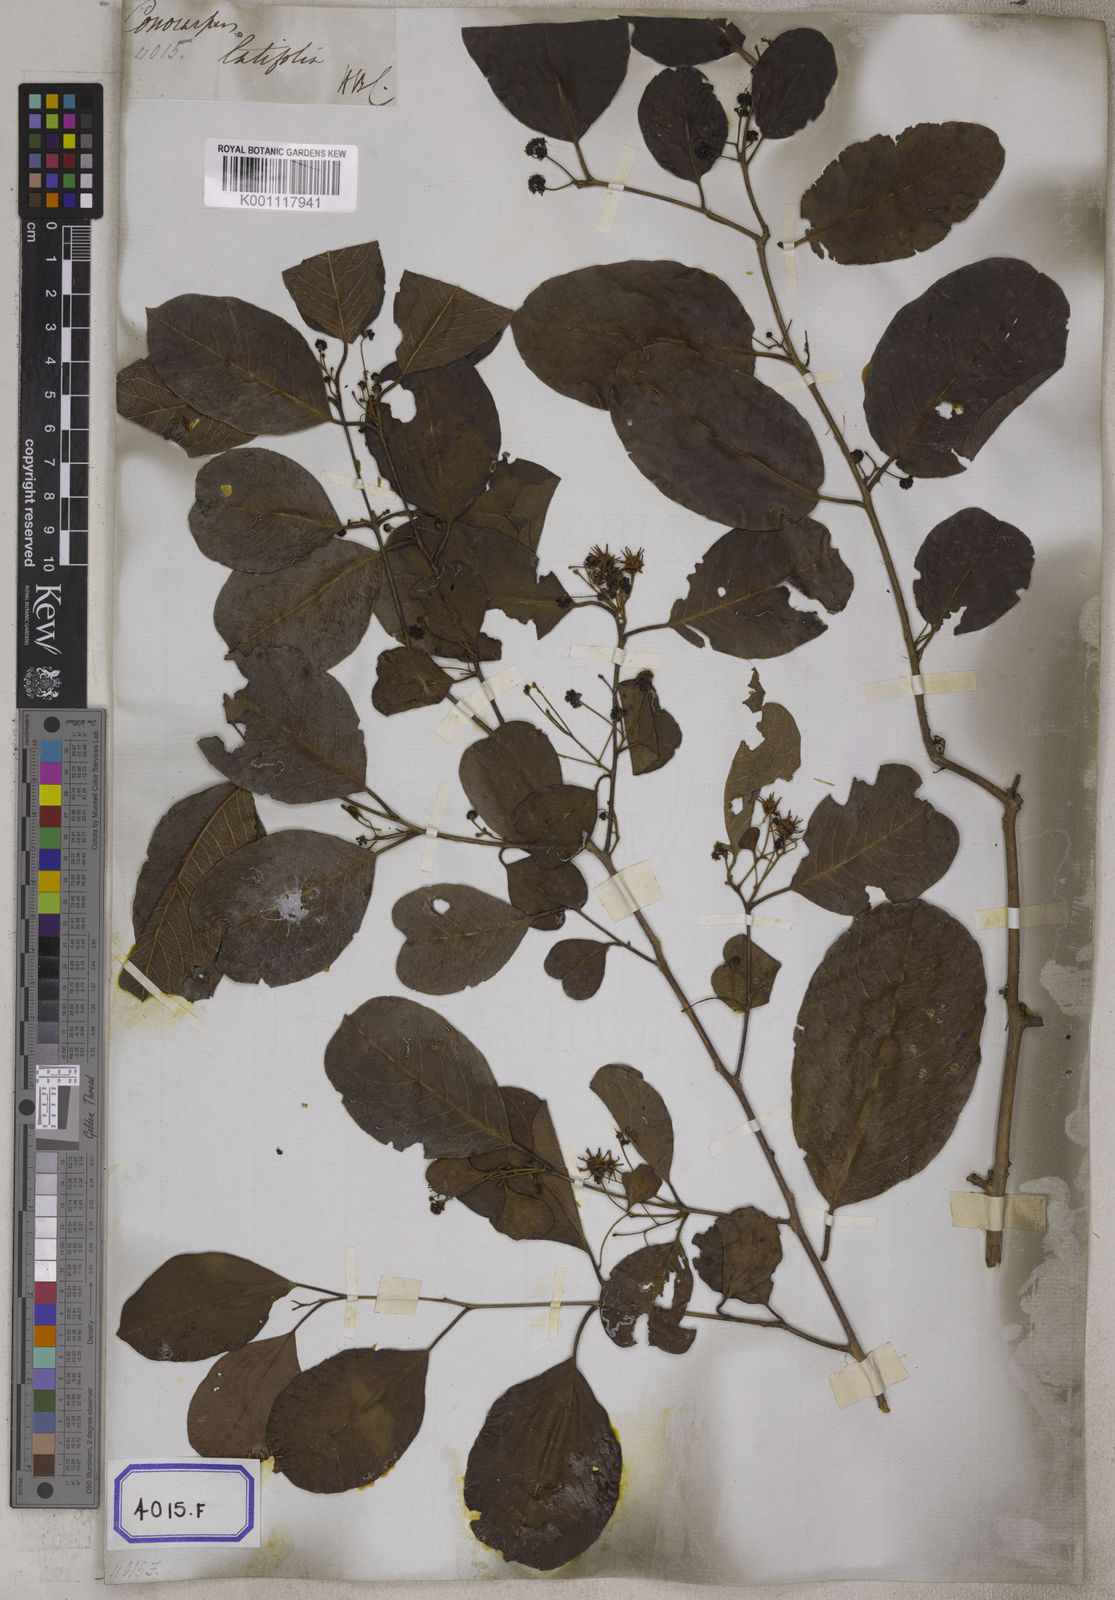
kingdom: Plantae
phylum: Tracheophyta
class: Magnoliopsida
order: Myrtales
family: Combretaceae
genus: Anogeissus
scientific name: Anogeissus
